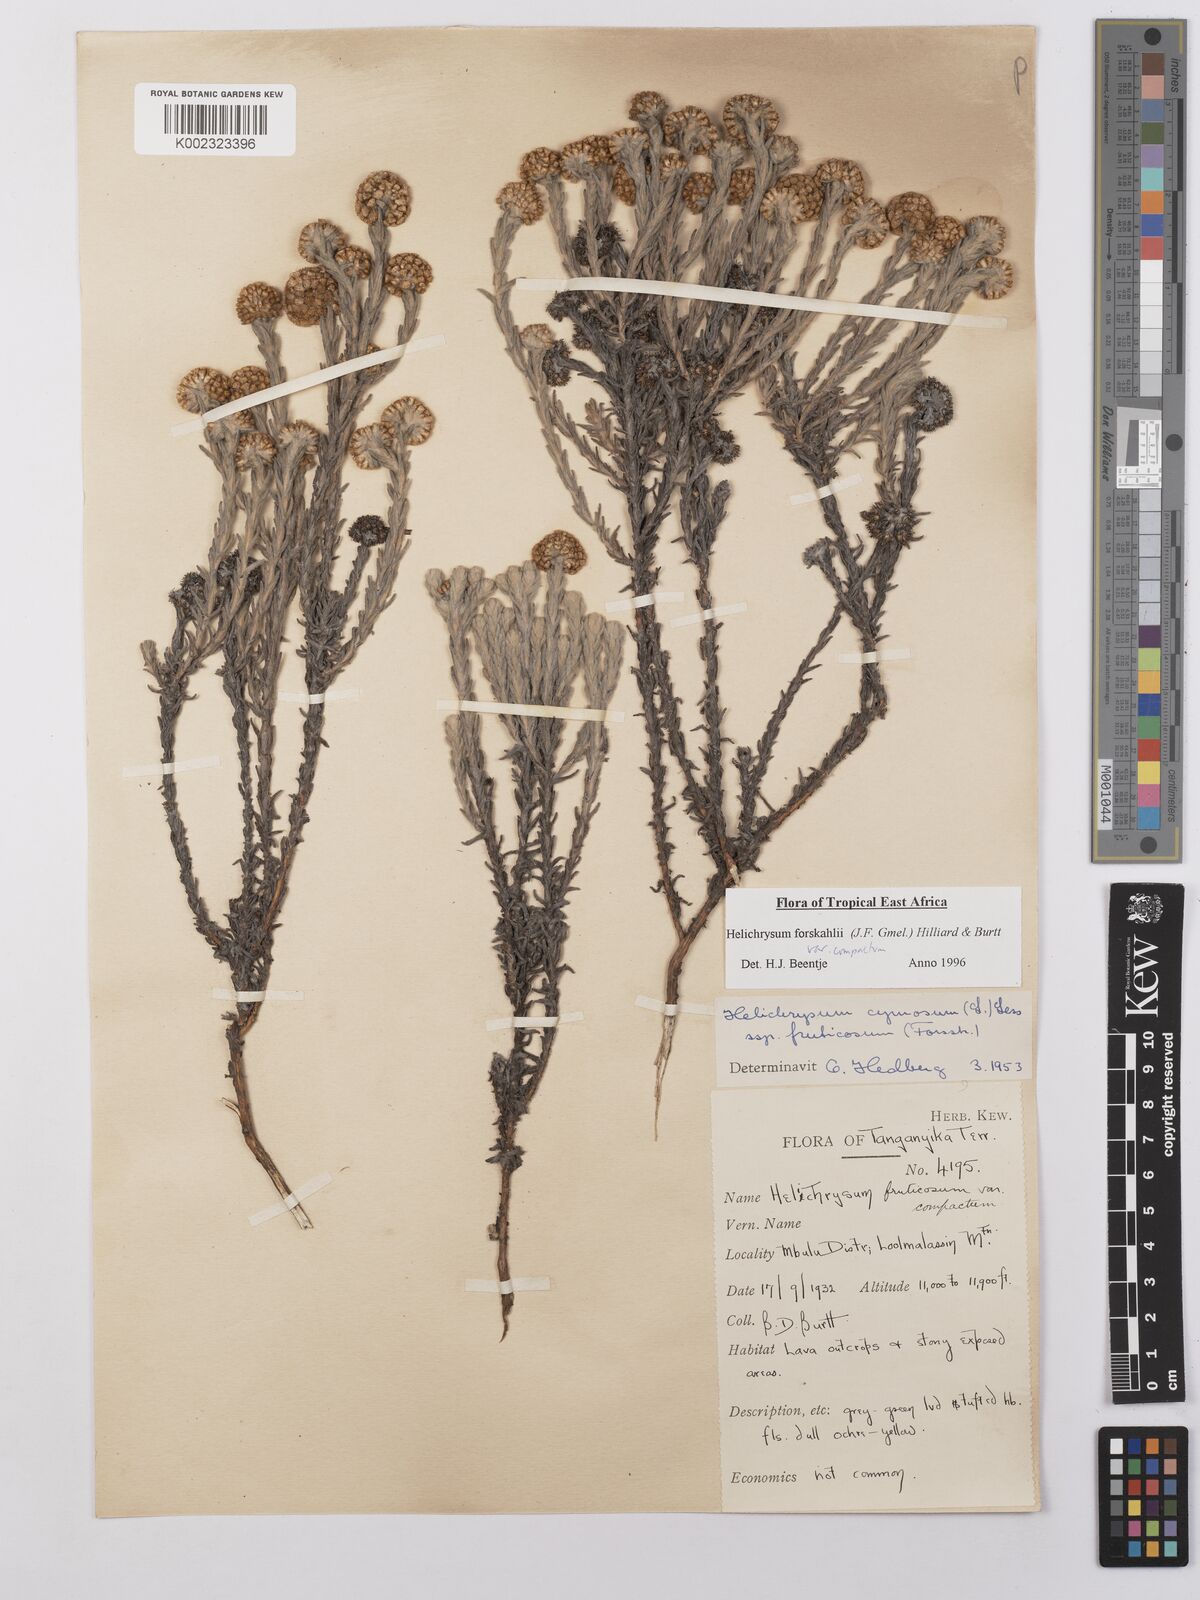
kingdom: Plantae
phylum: Tracheophyta
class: Magnoliopsida
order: Asterales
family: Asteraceae
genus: Helichrysum
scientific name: Helichrysum forskahlii
